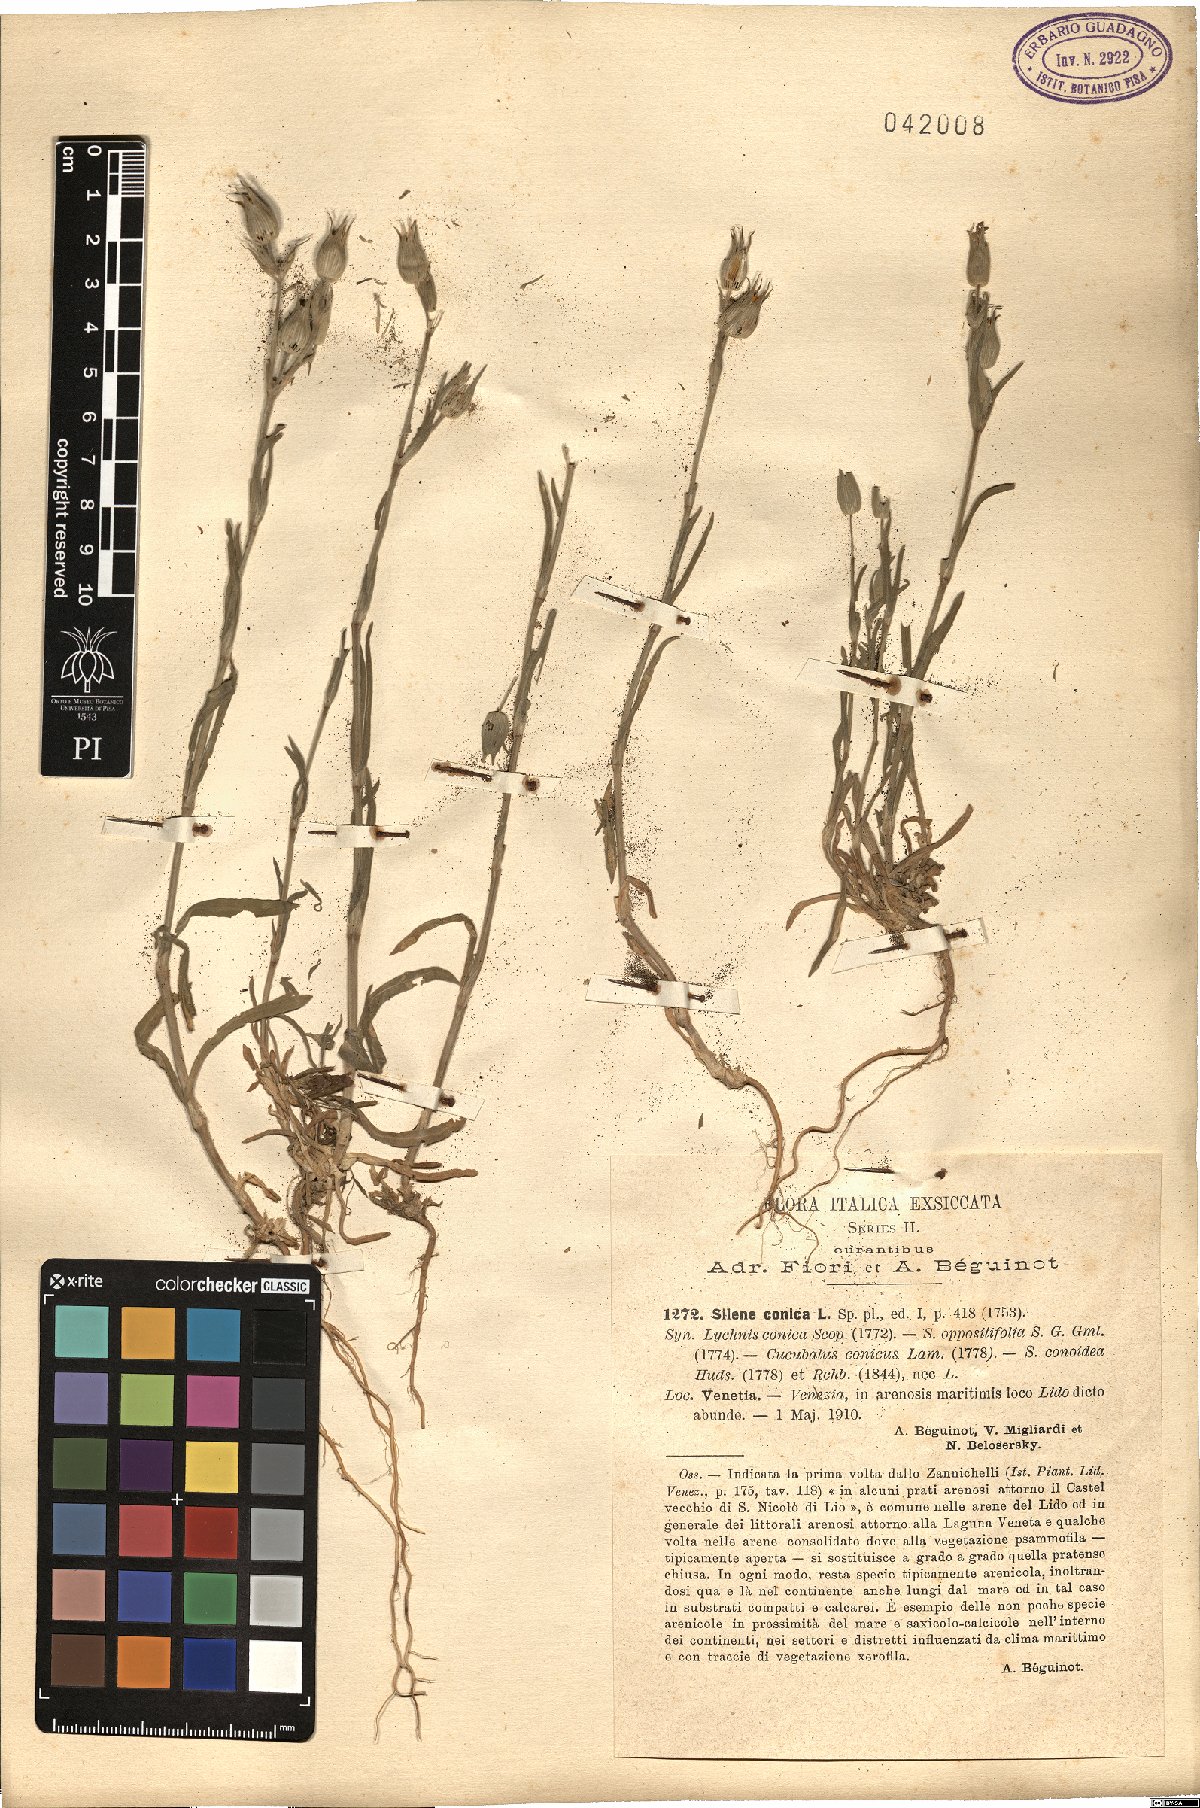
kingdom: Plantae
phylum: Tracheophyta
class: Magnoliopsida
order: Caryophyllales
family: Caryophyllaceae
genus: Silene
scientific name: Silene conica
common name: Sand catchfly
